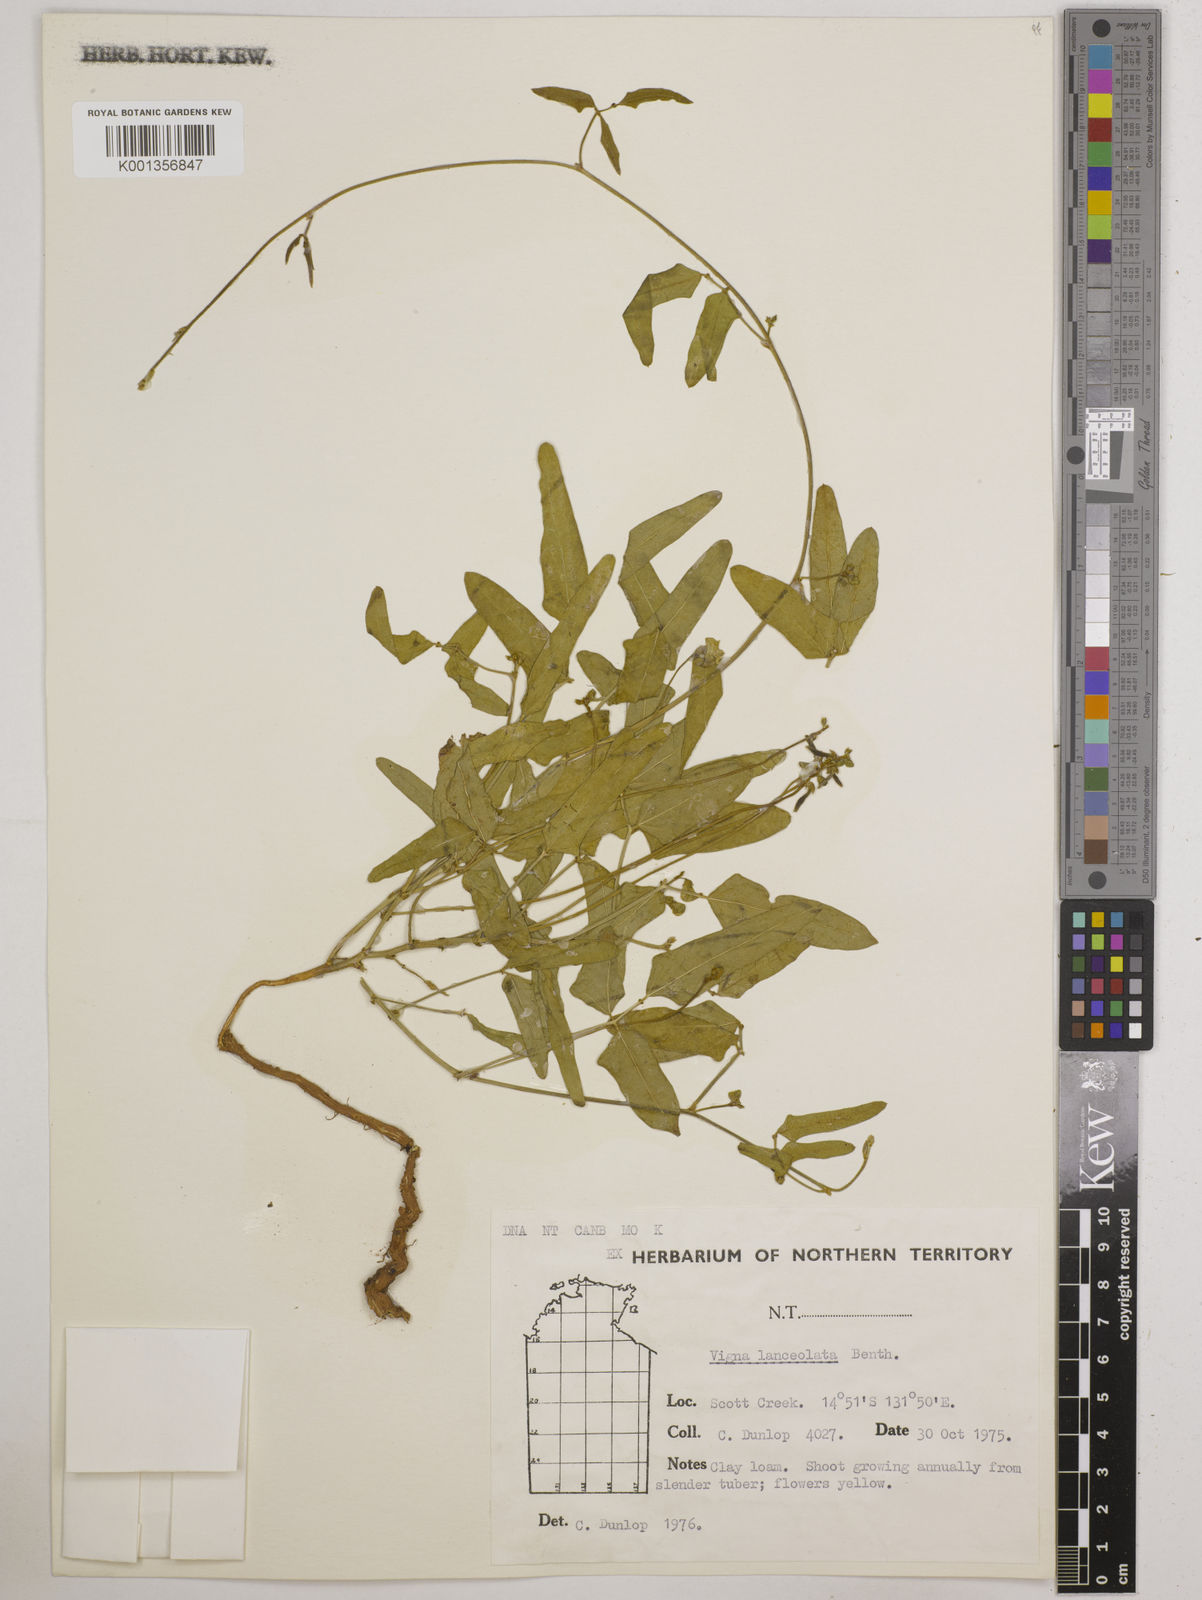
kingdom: Plantae
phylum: Tracheophyta
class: Magnoliopsida
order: Fabales
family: Fabaceae
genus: Vigna
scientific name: Vigna lanceolata
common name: Maloga-bean
